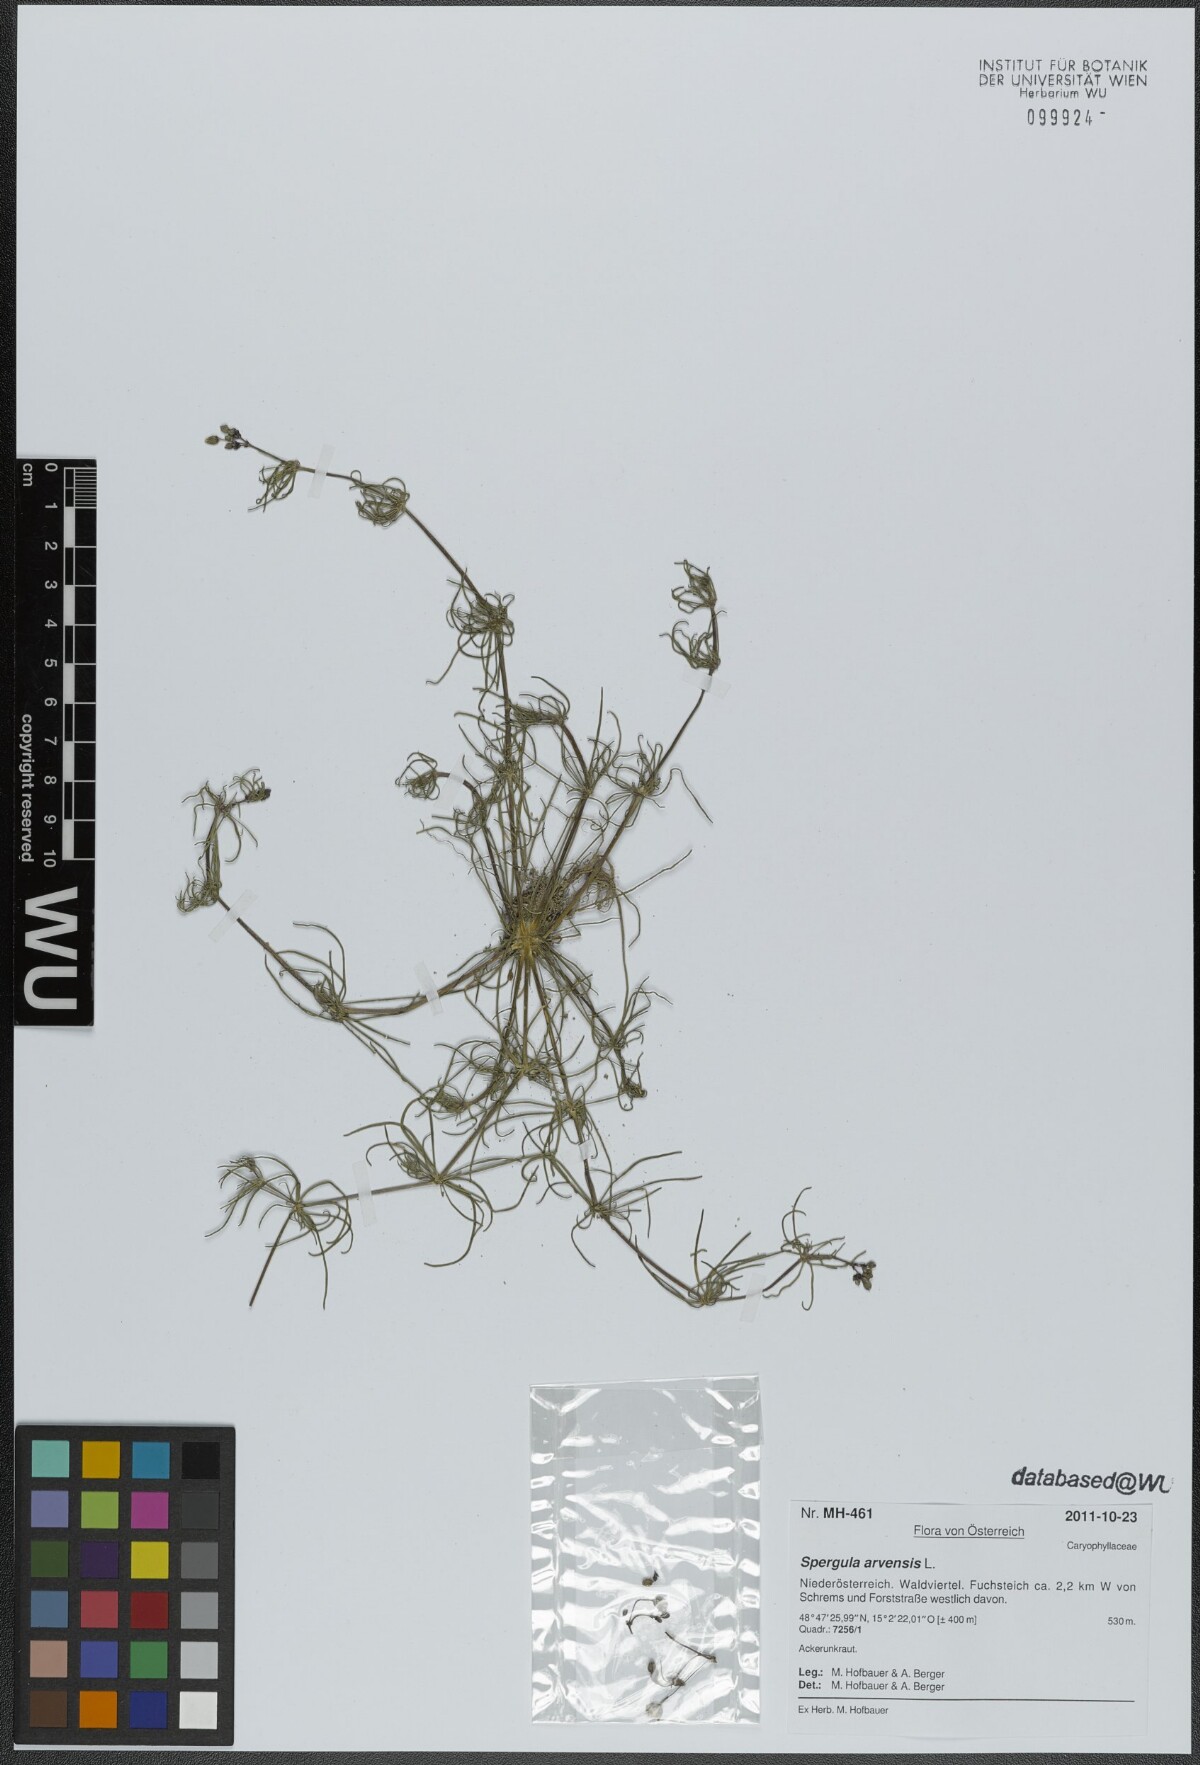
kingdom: Plantae
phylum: Tracheophyta
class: Magnoliopsida
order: Caryophyllales
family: Caryophyllaceae
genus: Spergula
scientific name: Spergula arvensis
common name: Corn spurrey
